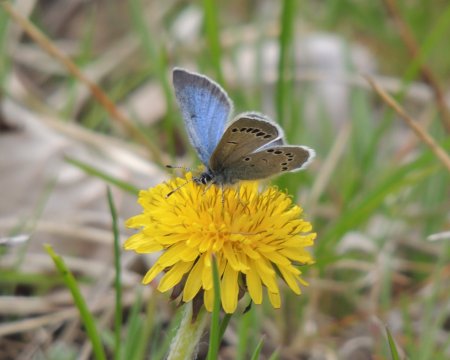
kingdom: Animalia
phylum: Arthropoda
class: Insecta
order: Lepidoptera
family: Lycaenidae
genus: Glaucopsyche
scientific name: Glaucopsyche lygdamus
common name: Silvery Blue
